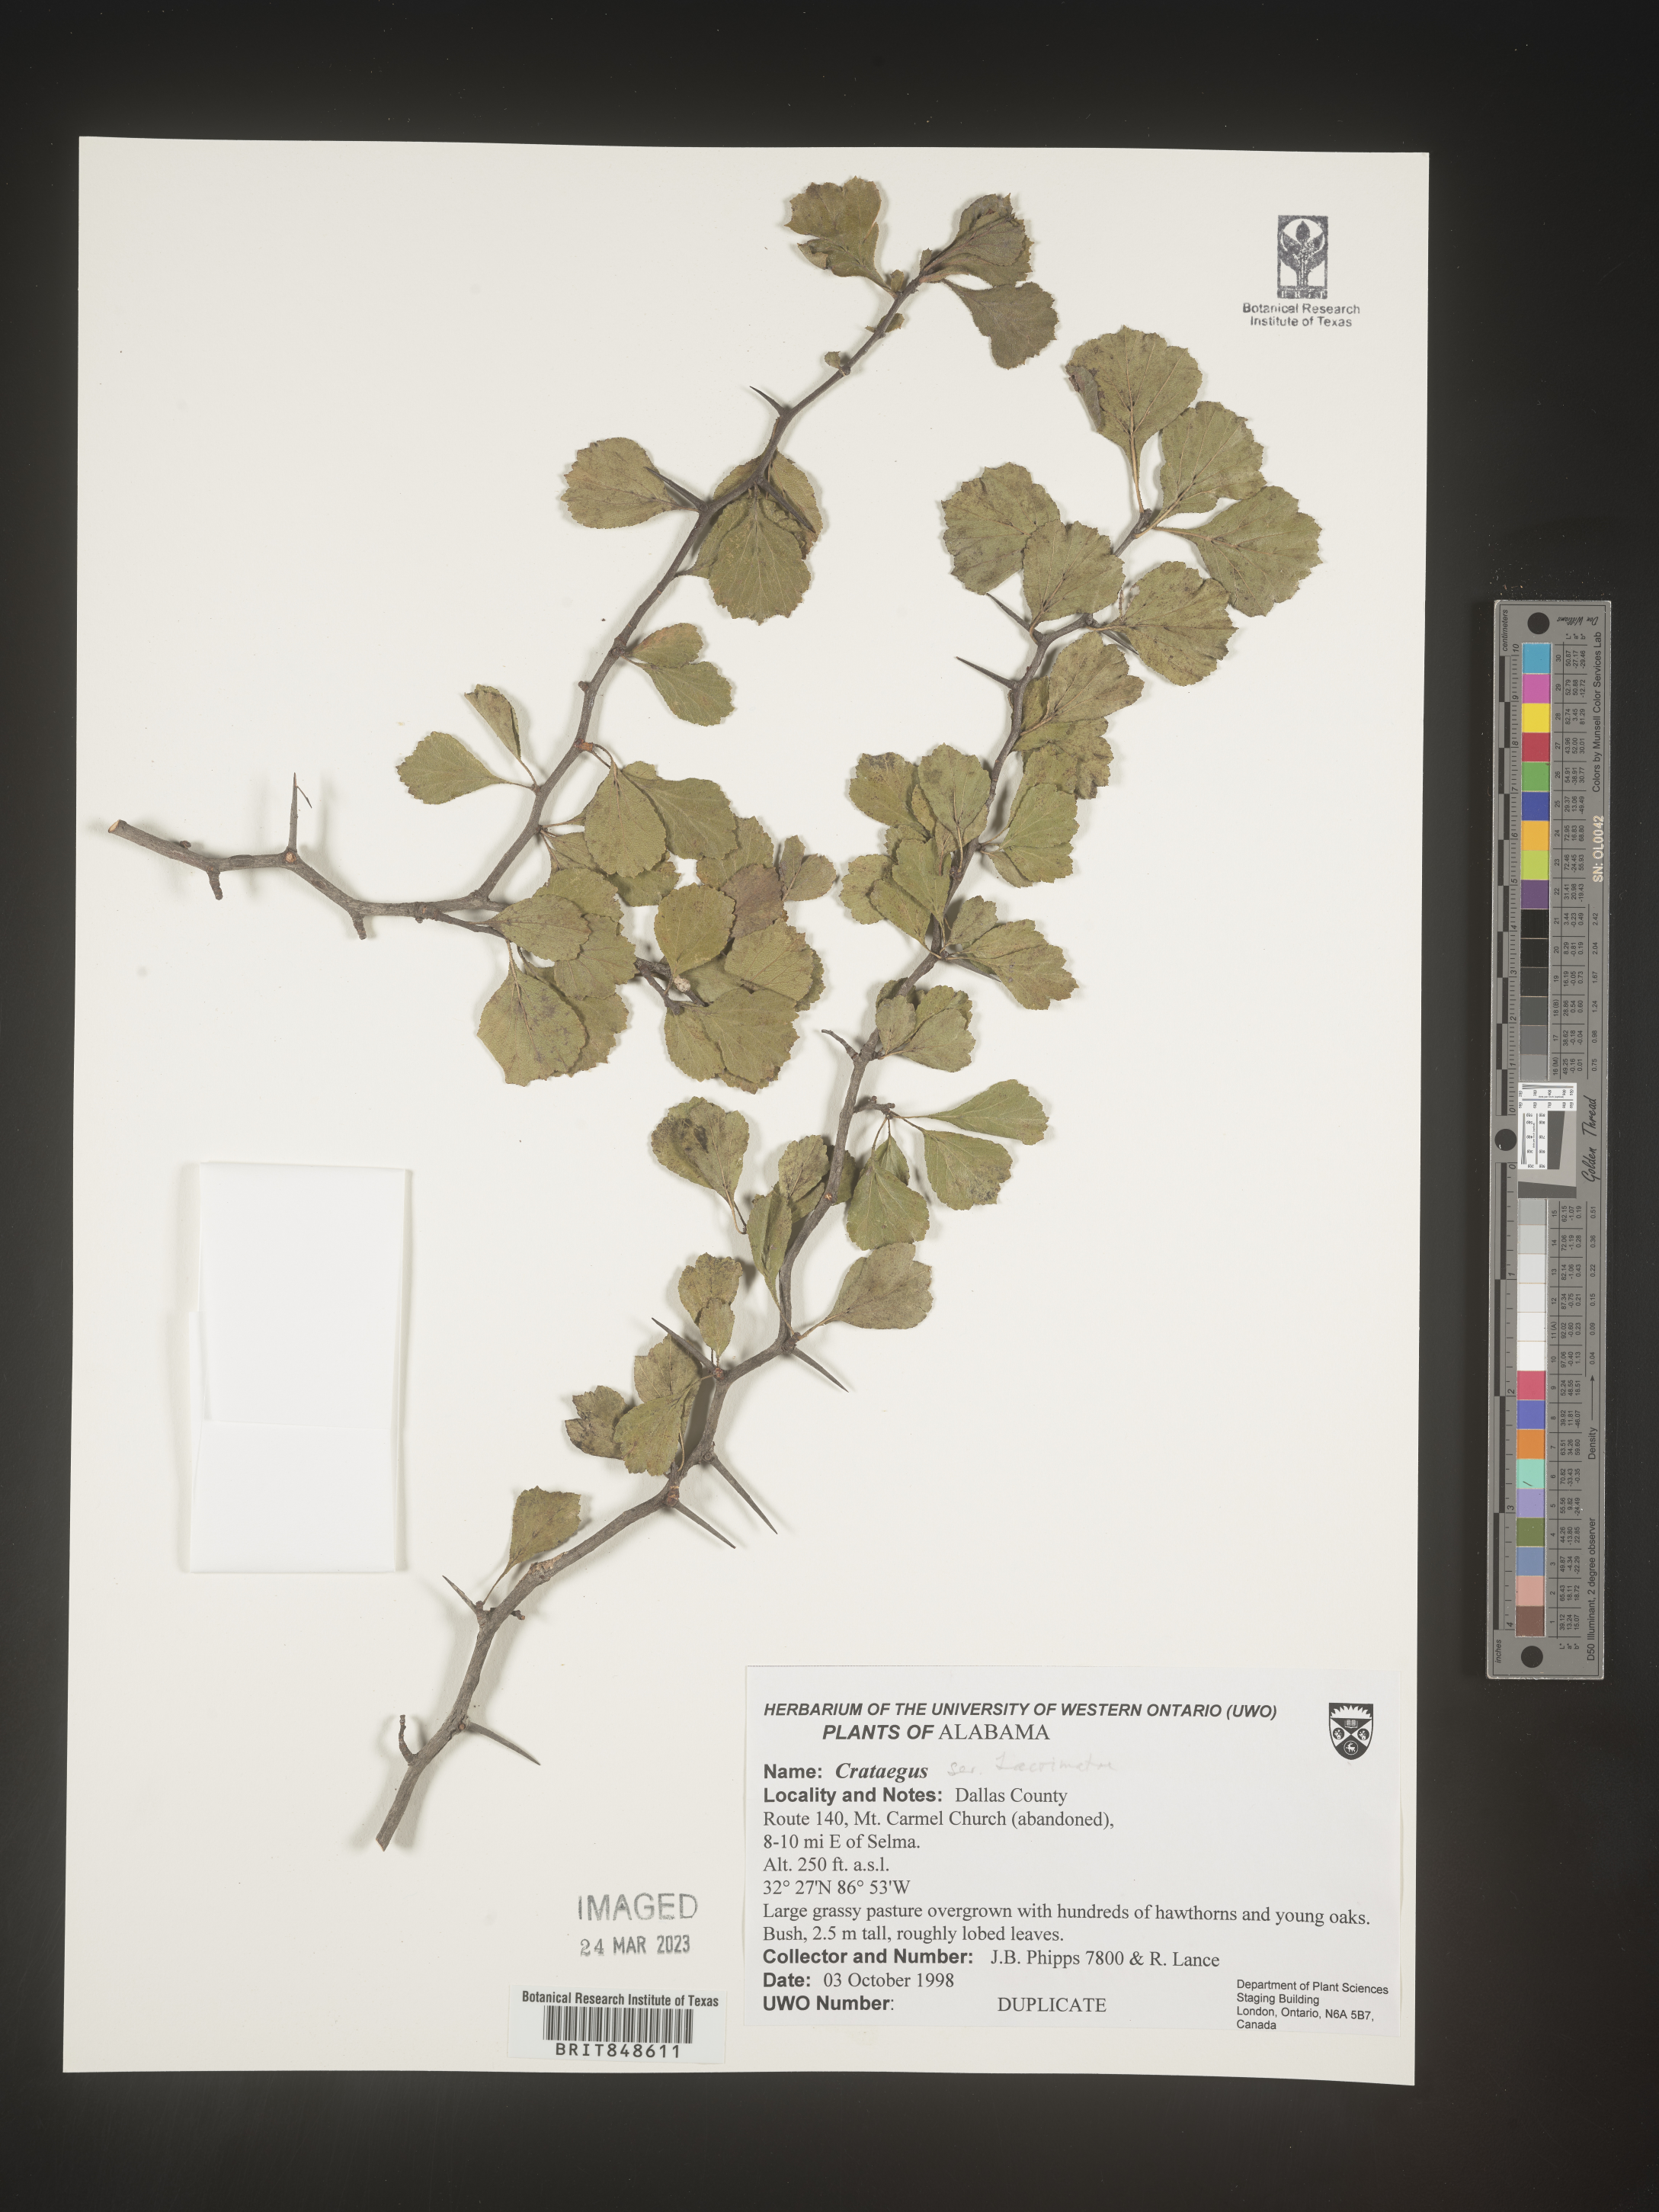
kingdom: Plantae
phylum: Tracheophyta
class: Magnoliopsida
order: Rosales
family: Rosaceae
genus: Crataegus
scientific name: Crataegus
